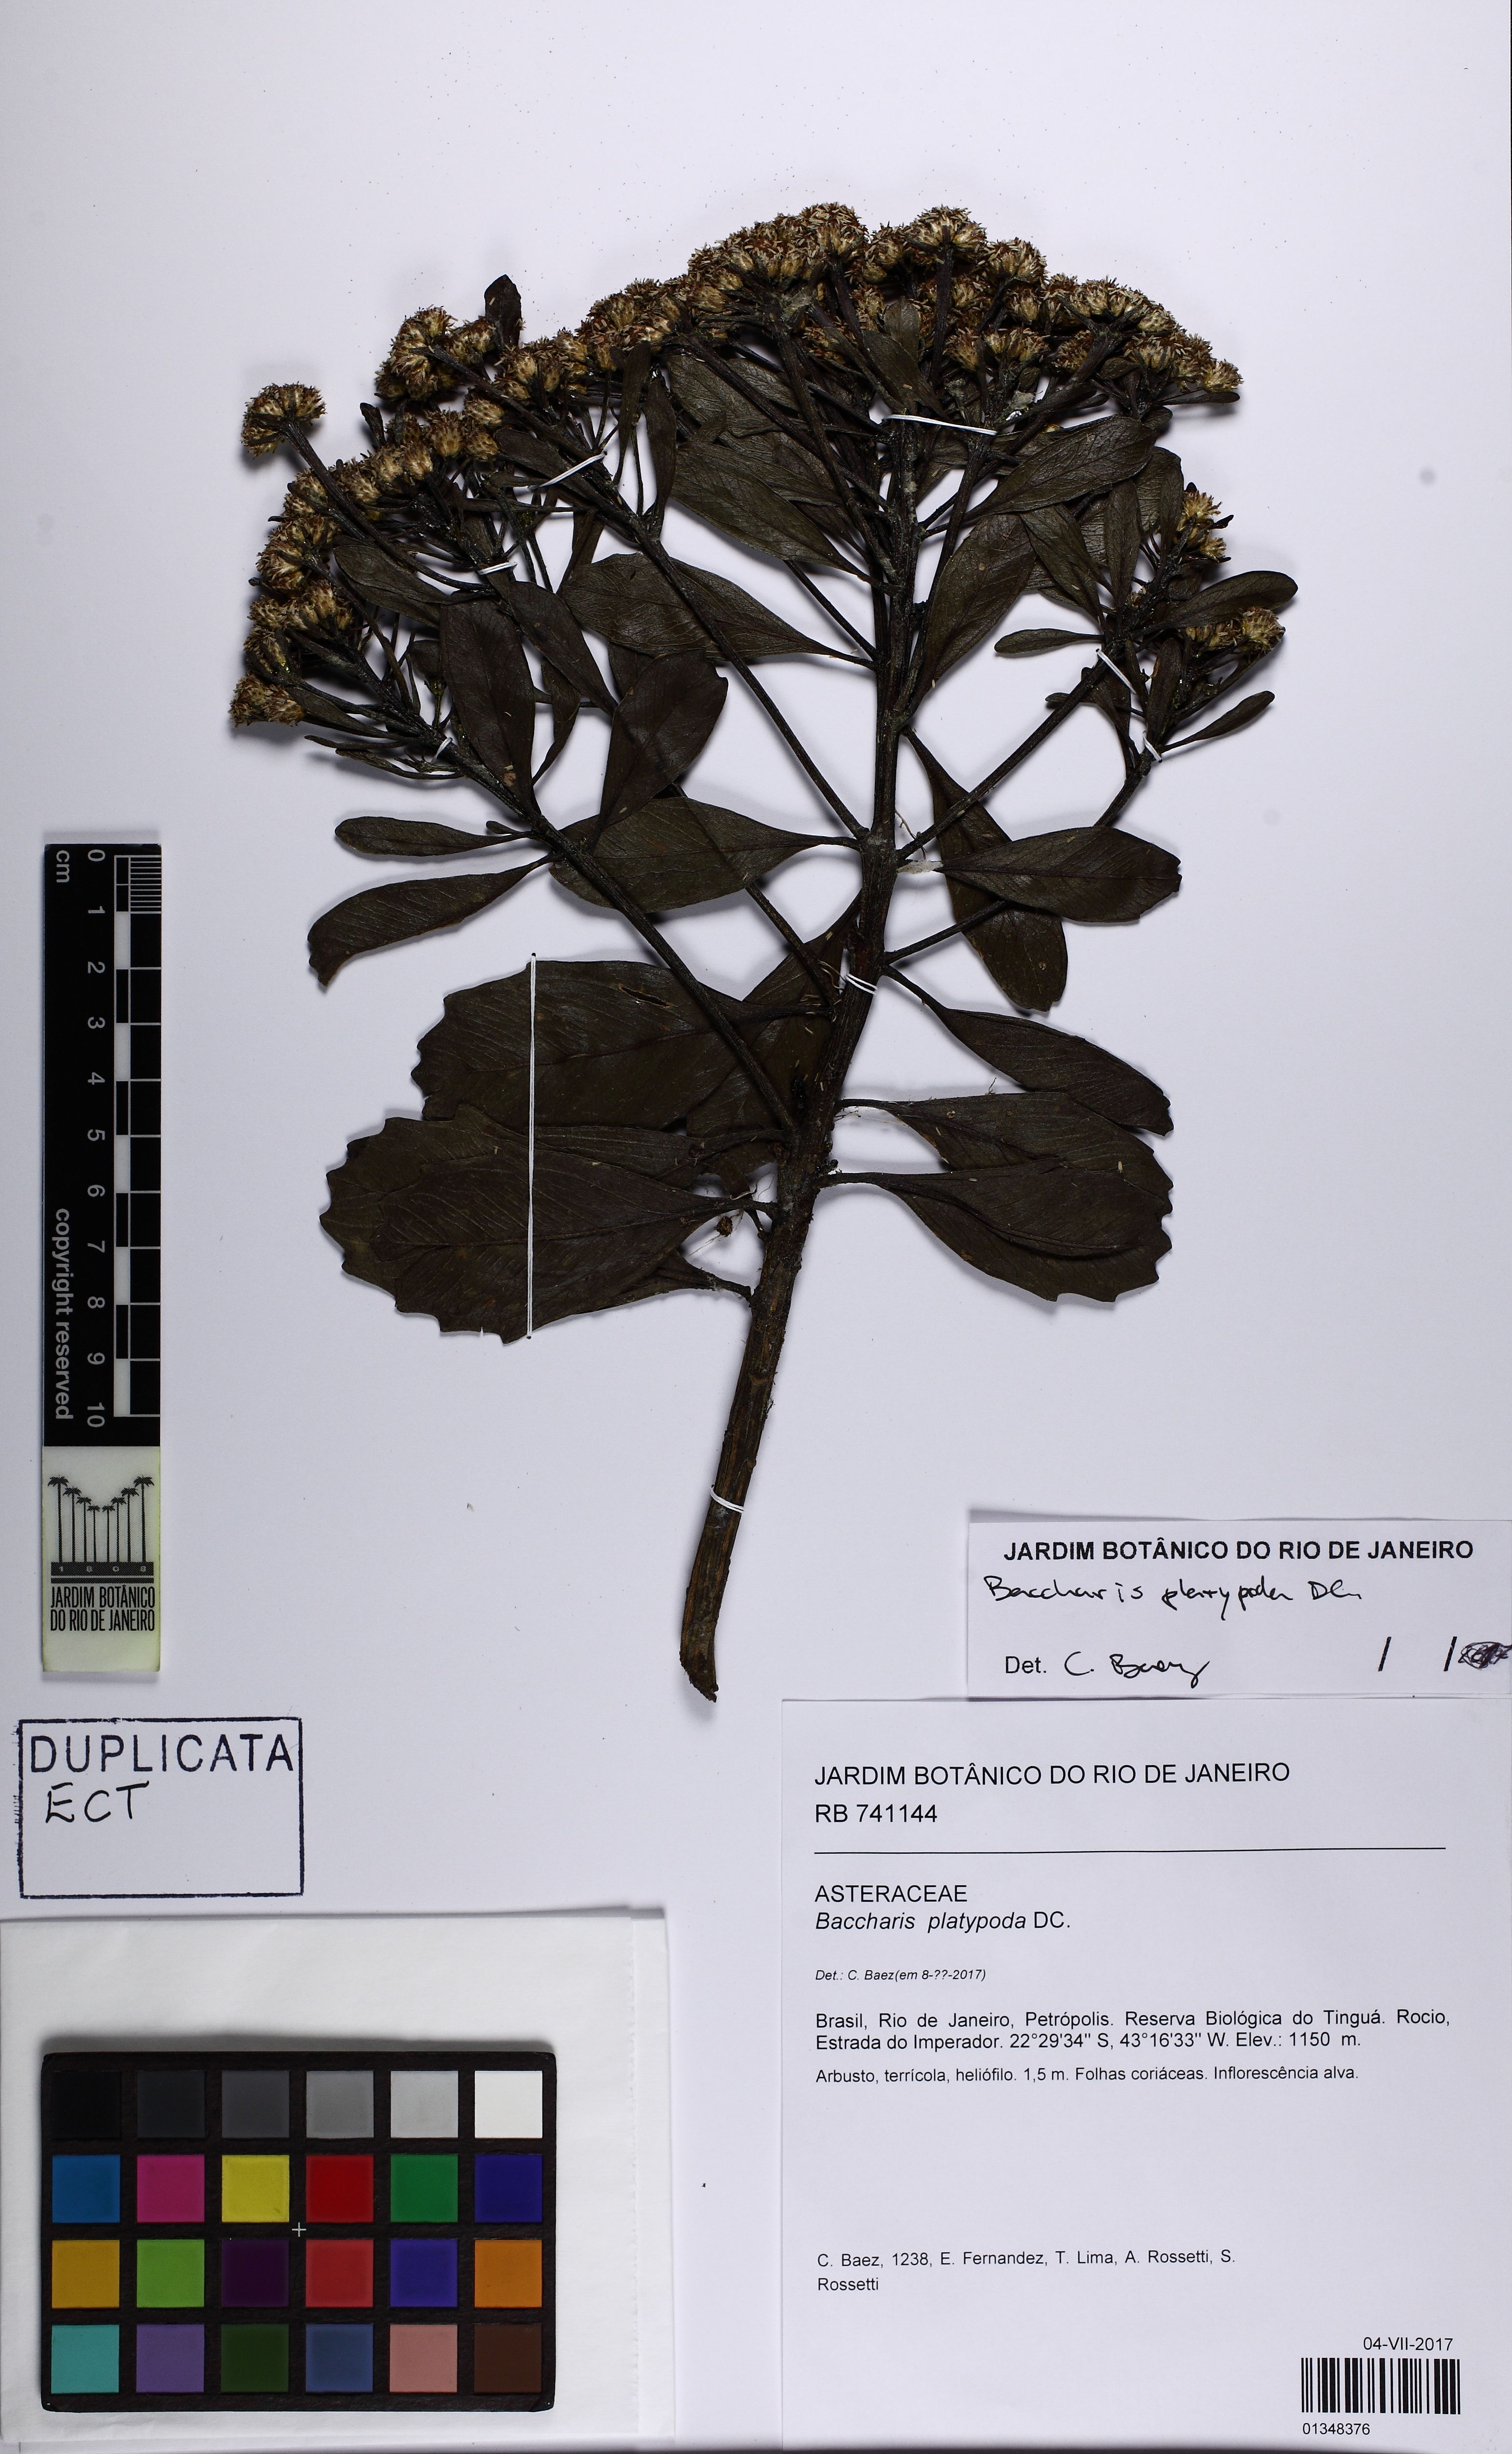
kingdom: Plantae
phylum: Tracheophyta
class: Magnoliopsida
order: Asterales
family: Asteraceae
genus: Baccharis
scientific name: Baccharis platypoda
